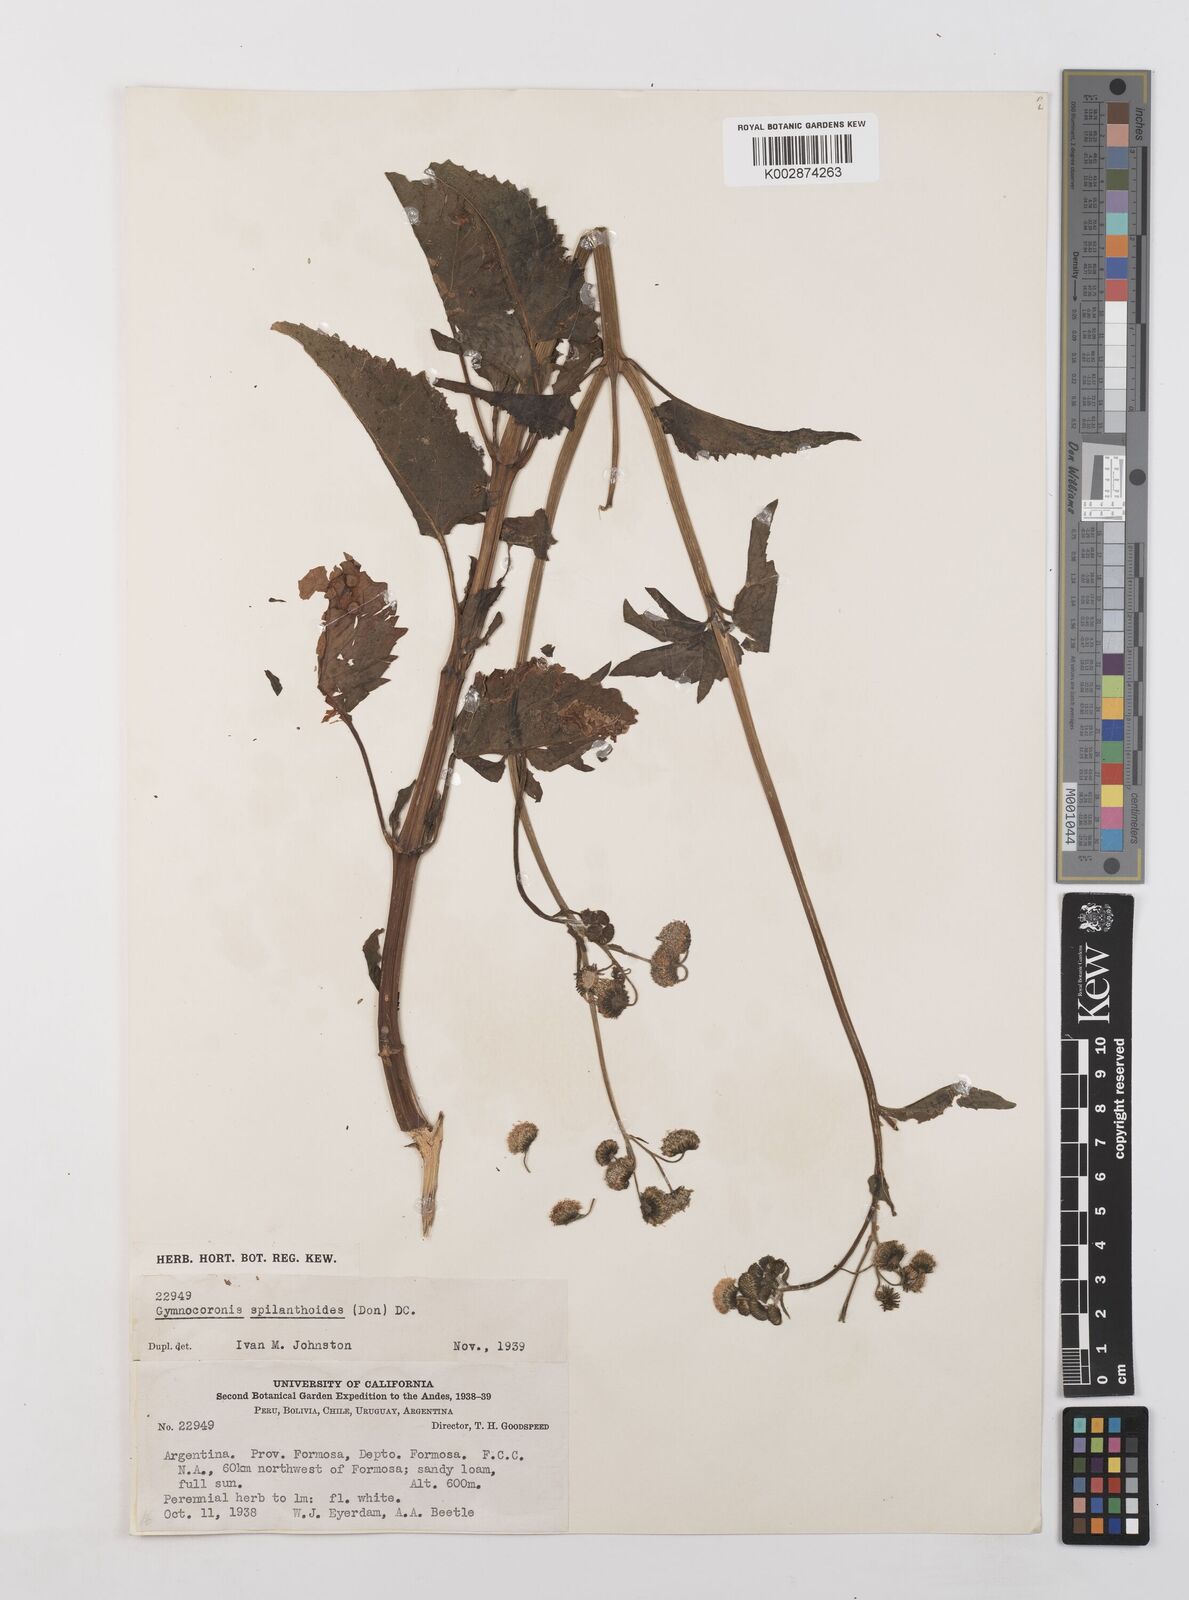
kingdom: Plantae
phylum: Tracheophyta
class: Magnoliopsida
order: Asterales
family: Asteraceae
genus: Gymnocoronis
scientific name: Gymnocoronis spilanthoides
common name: Senegal teaplant
